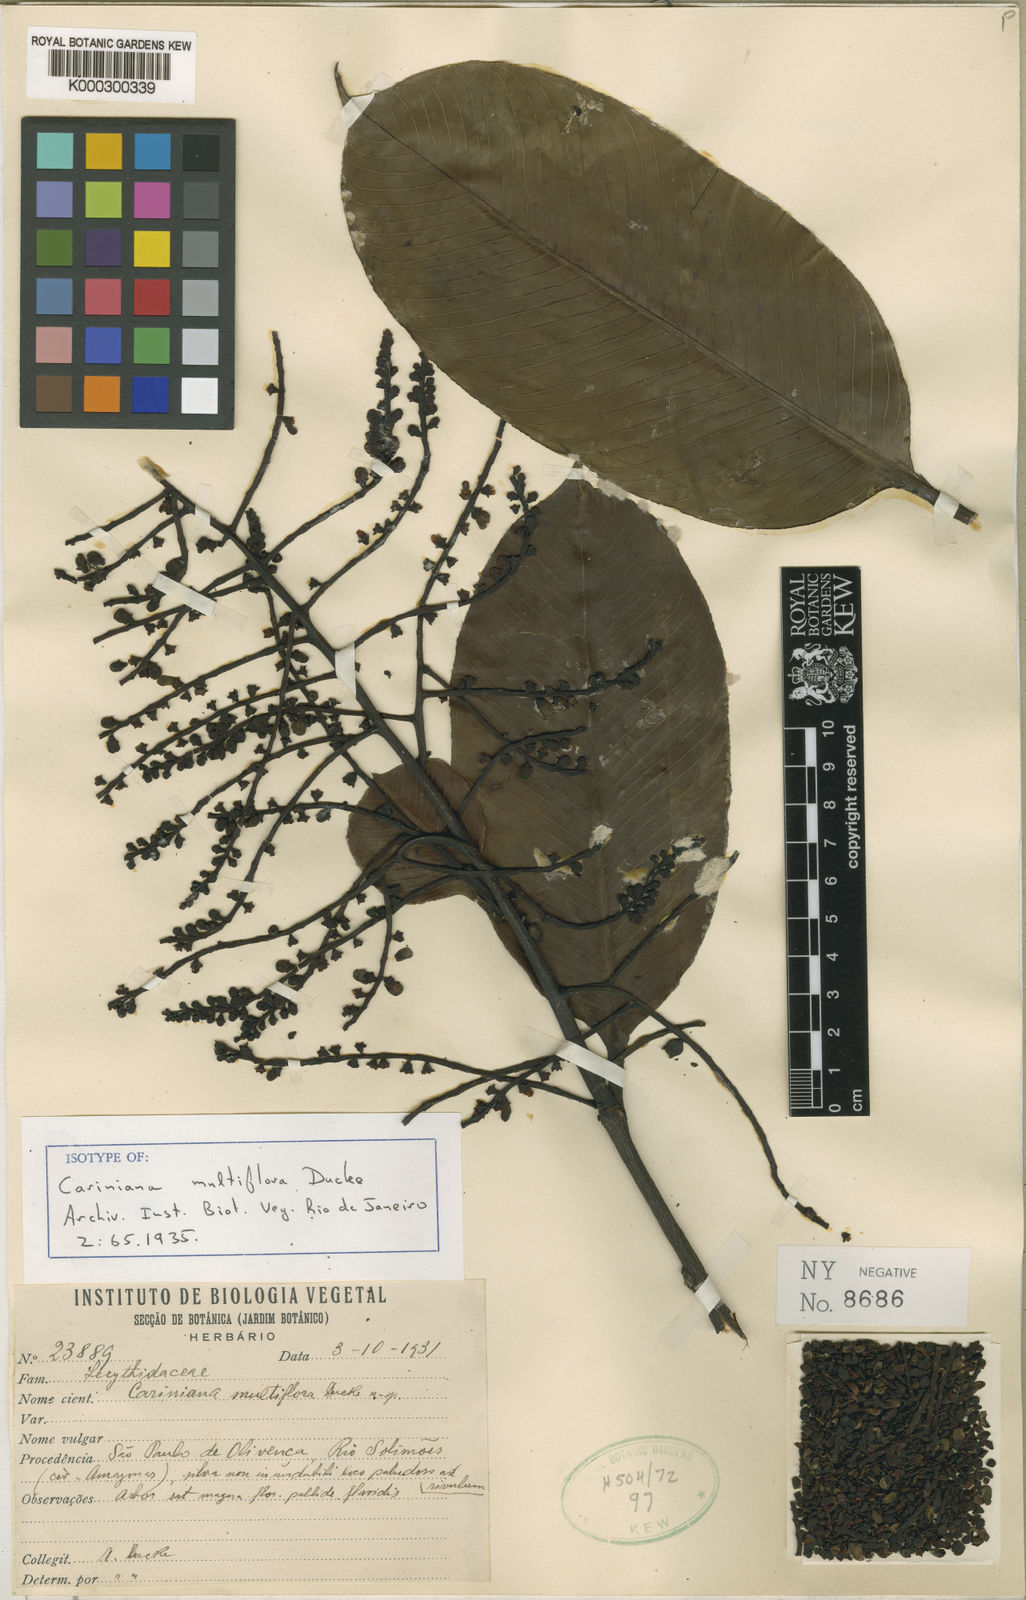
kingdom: Plantae
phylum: Tracheophyta
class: Magnoliopsida
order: Ericales
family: Lecythidaceae
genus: Allantoma
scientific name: Allantoma pluriflora
